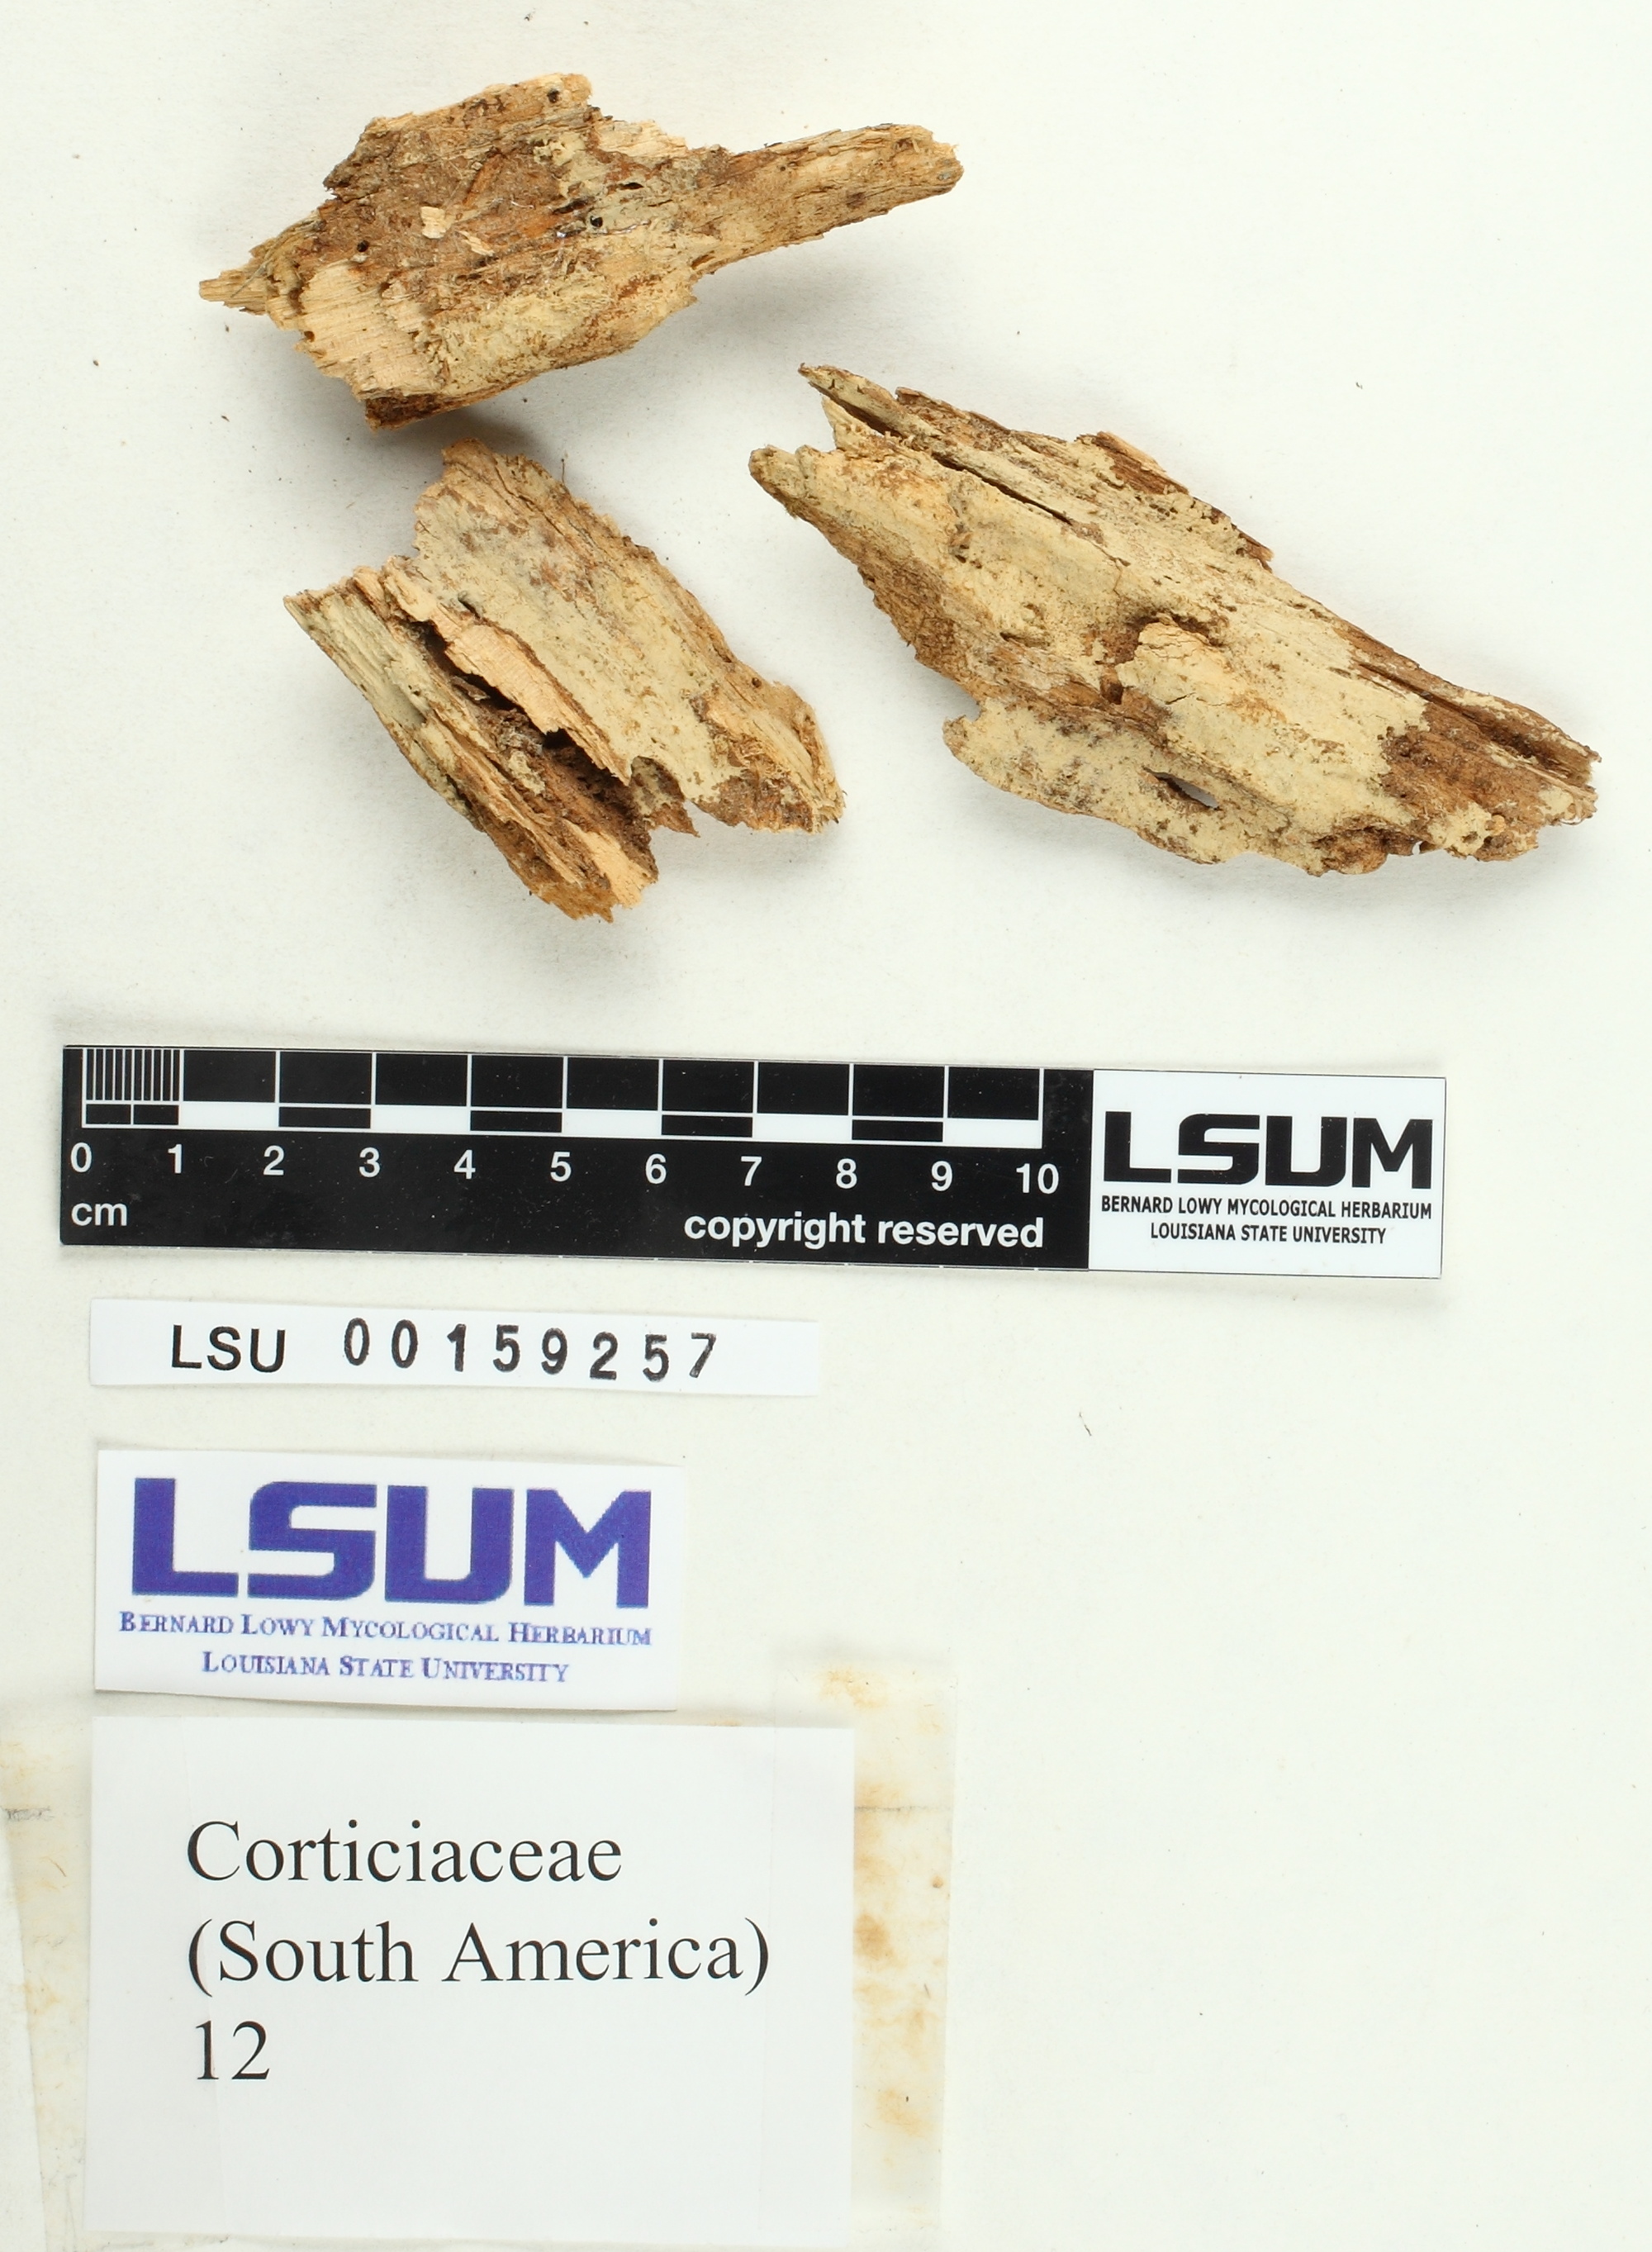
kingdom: Fungi
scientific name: Fungi
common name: Fungi
